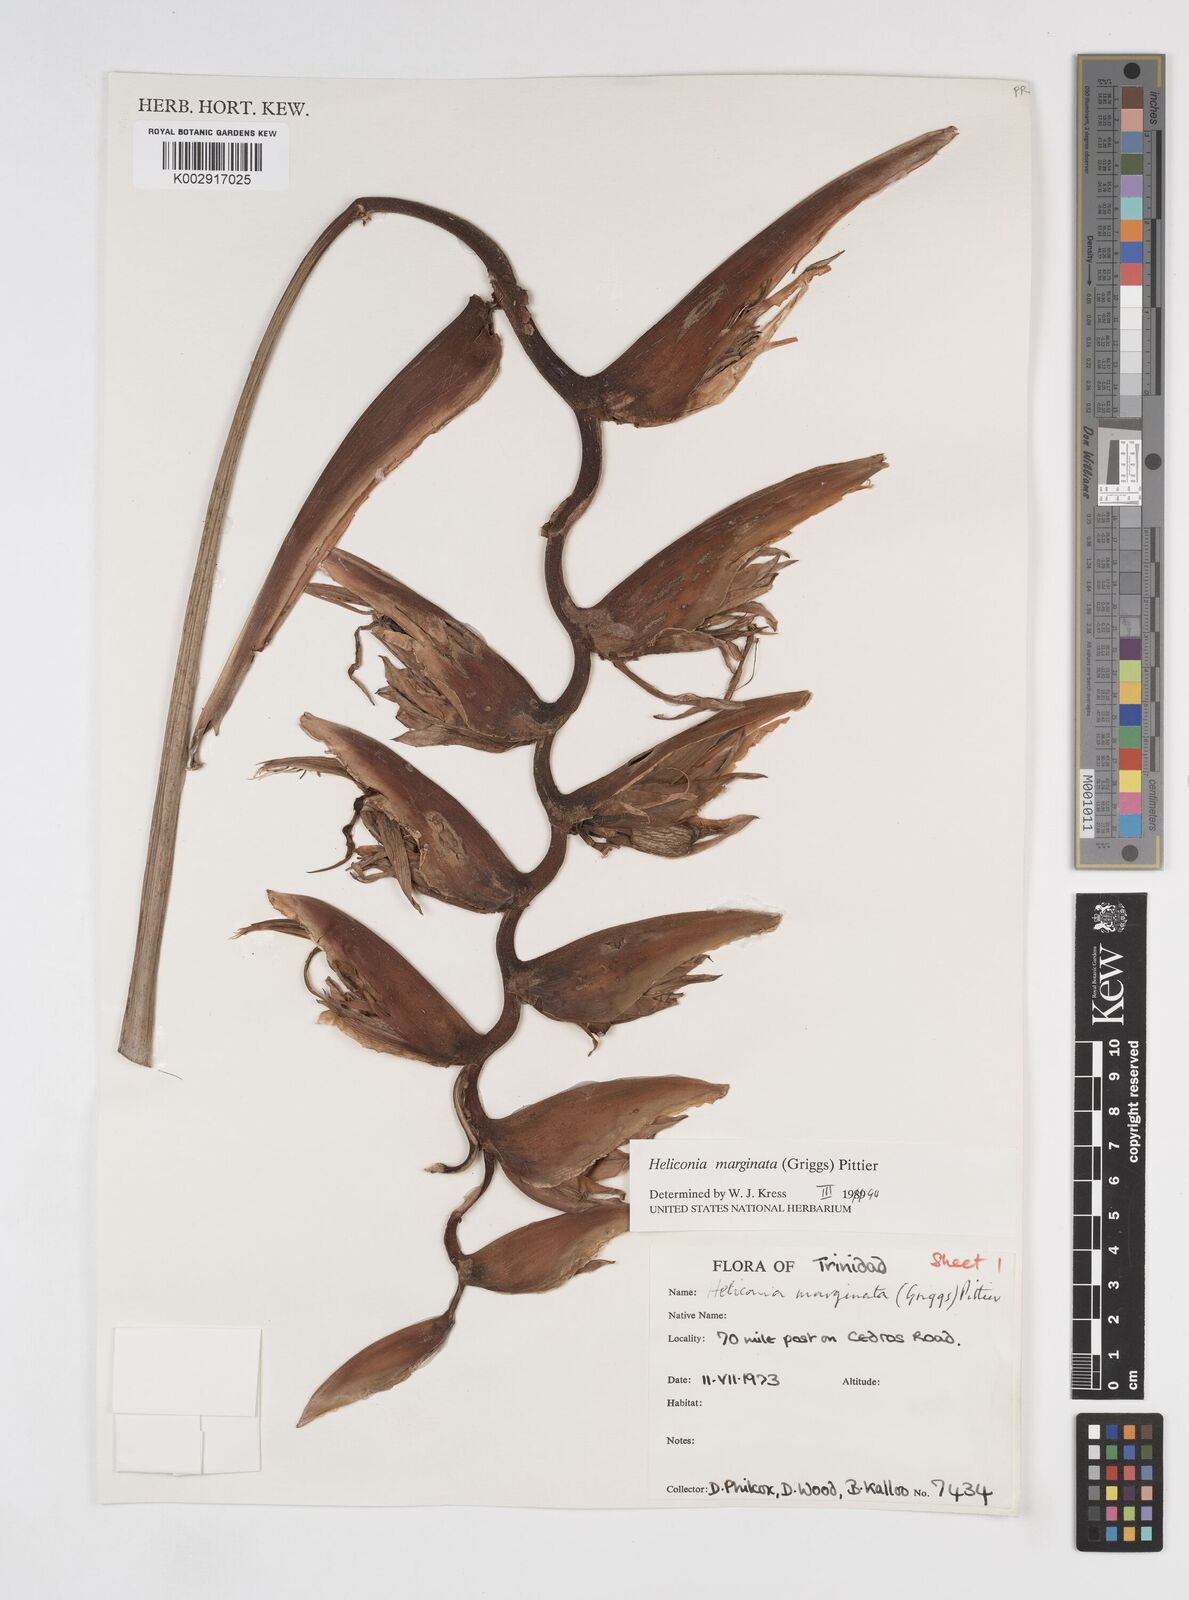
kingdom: Plantae
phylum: Tracheophyta
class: Liliopsida
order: Zingiberales
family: Heliconiaceae
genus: Heliconia
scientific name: Heliconia marginata
